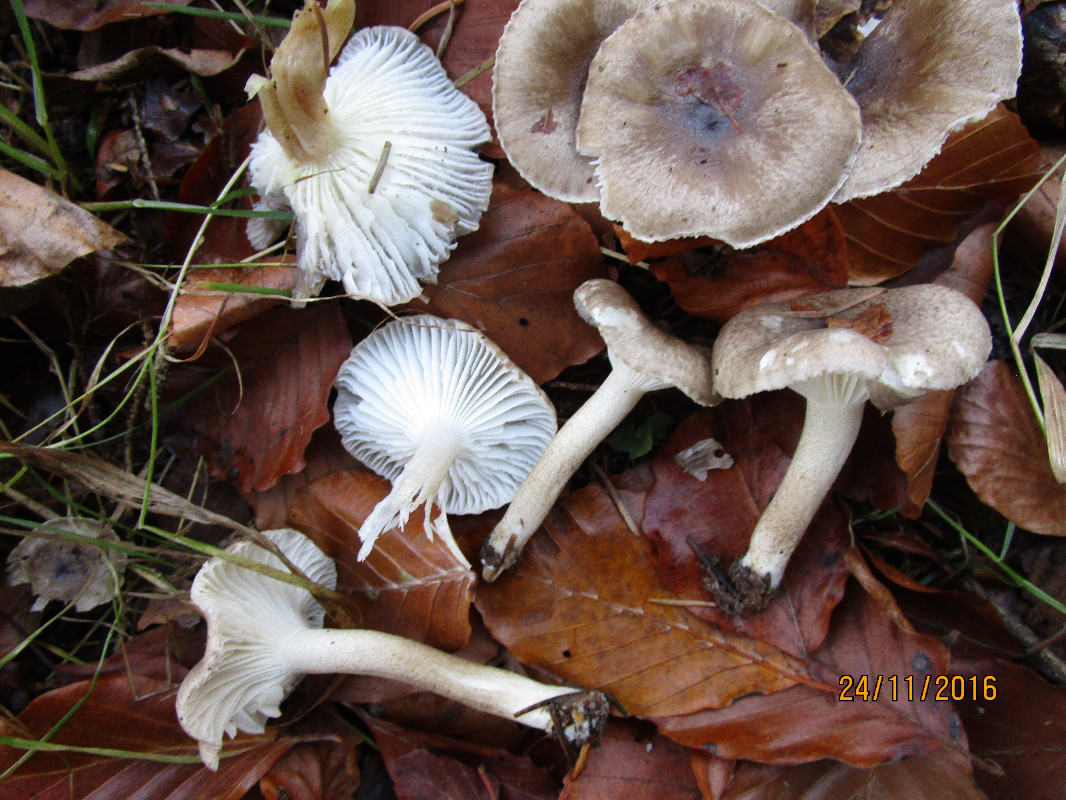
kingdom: Fungi
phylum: Basidiomycota
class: Agaricomycetes
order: Agaricales
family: Hygrophoraceae
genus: Hygrophorus
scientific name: Hygrophorus pustulatus
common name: mørkprikket sneglehat
